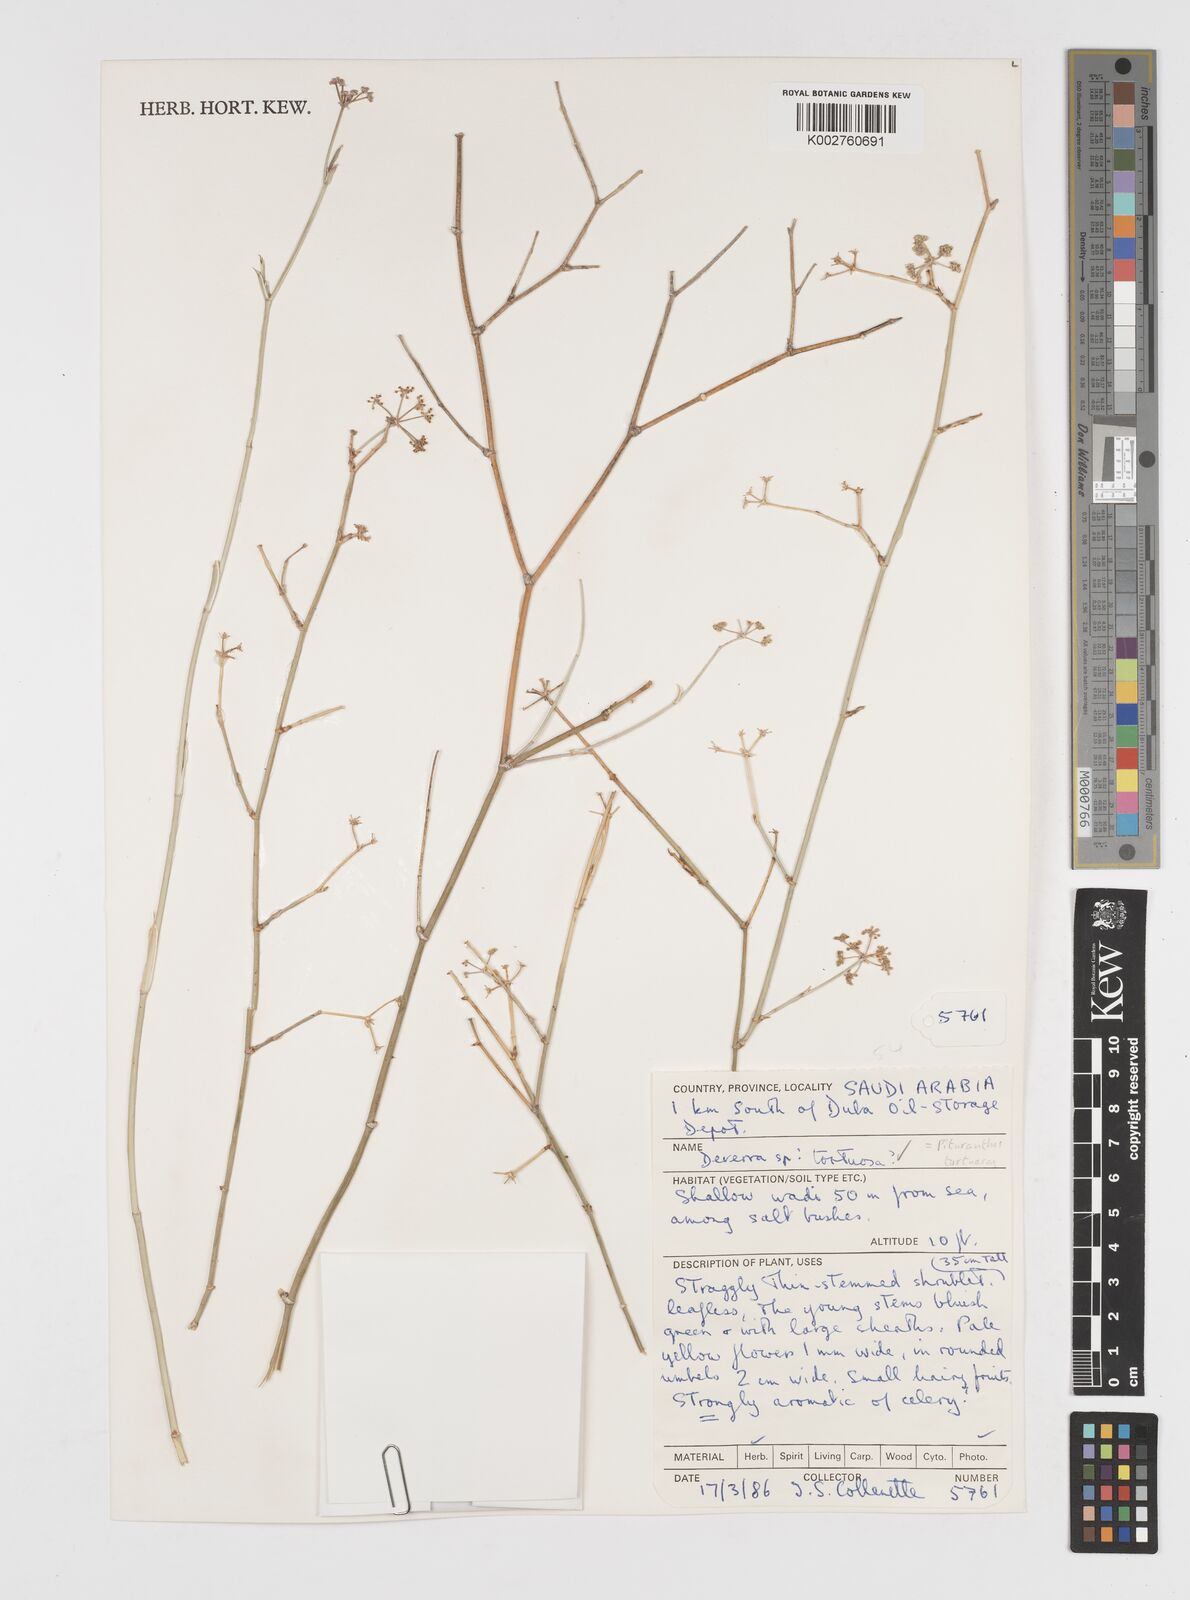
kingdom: Plantae
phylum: Tracheophyta
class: Magnoliopsida
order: Apiales
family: Apiaceae
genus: Deverra
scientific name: Deverra tortuosa
